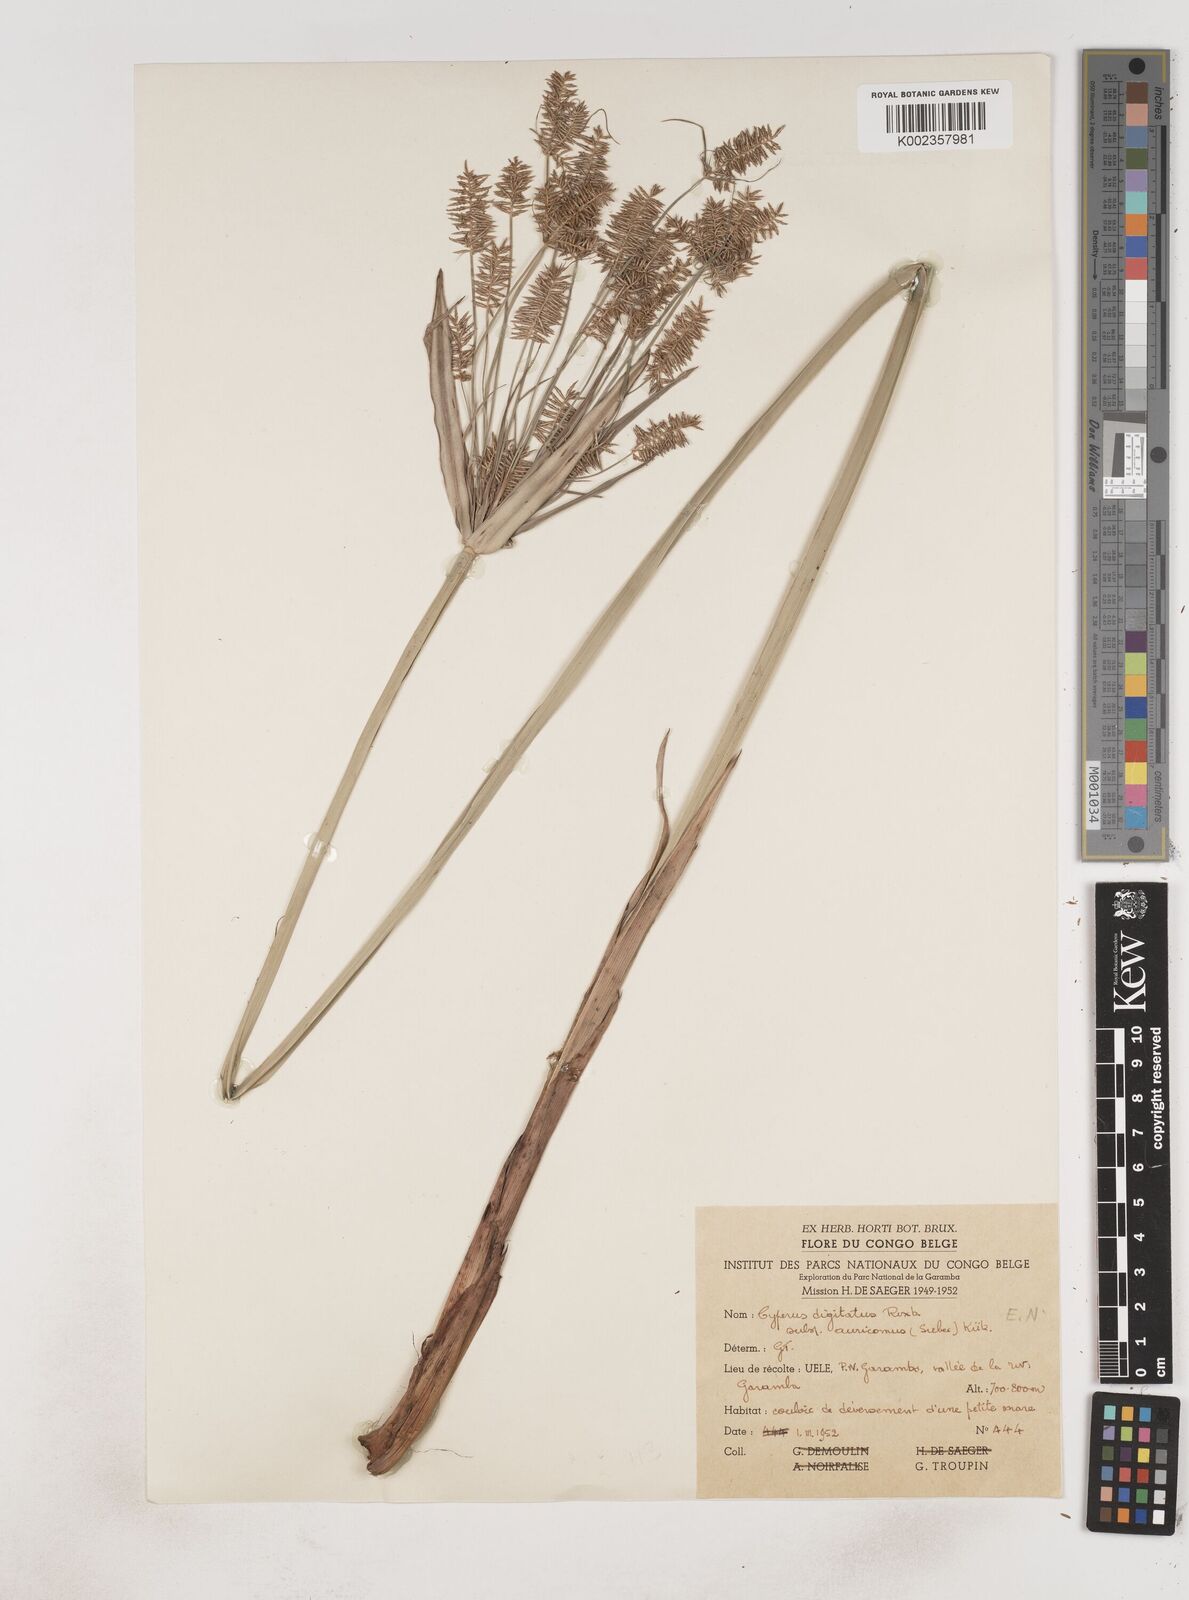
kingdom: Plantae
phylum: Tracheophyta
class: Liliopsida
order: Poales
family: Cyperaceae
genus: Cyperus
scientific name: Cyperus digitatus
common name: Finger flatsedge
